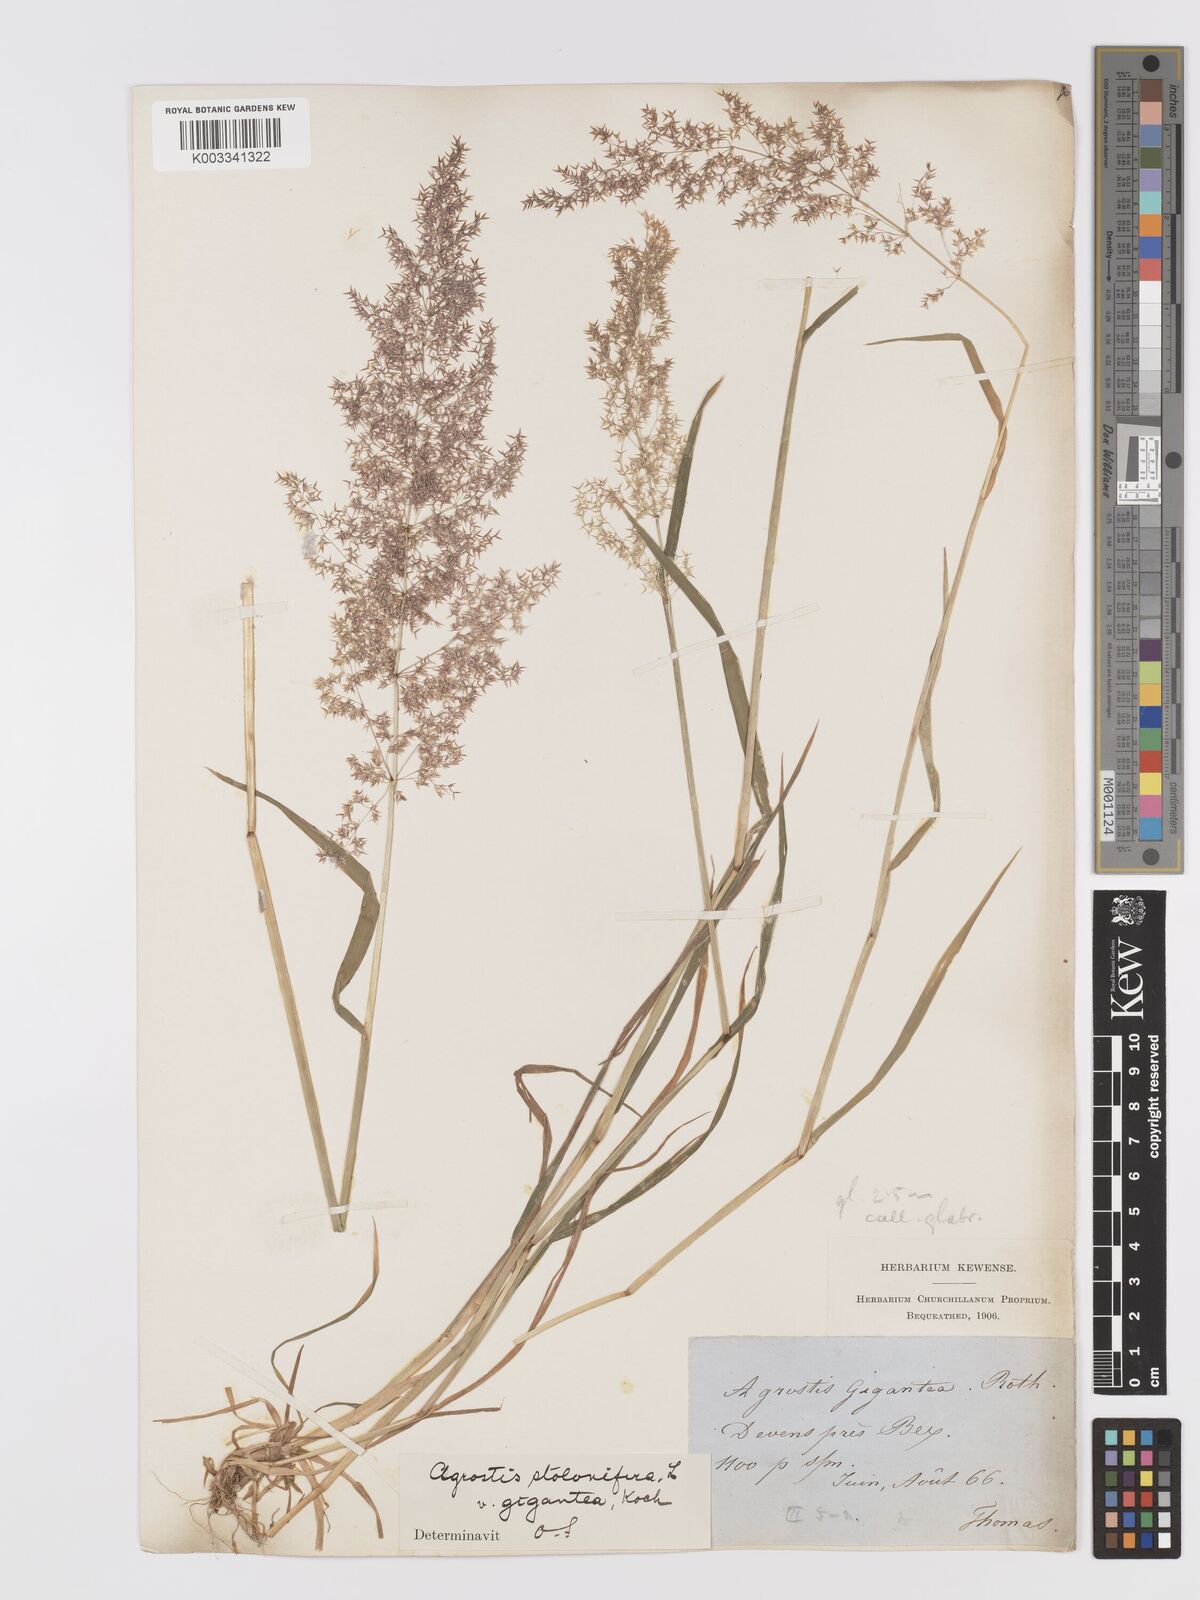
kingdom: Plantae
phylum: Tracheophyta
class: Liliopsida
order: Poales
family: Poaceae
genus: Agrostis
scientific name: Agrostis gigantea
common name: Black bent
